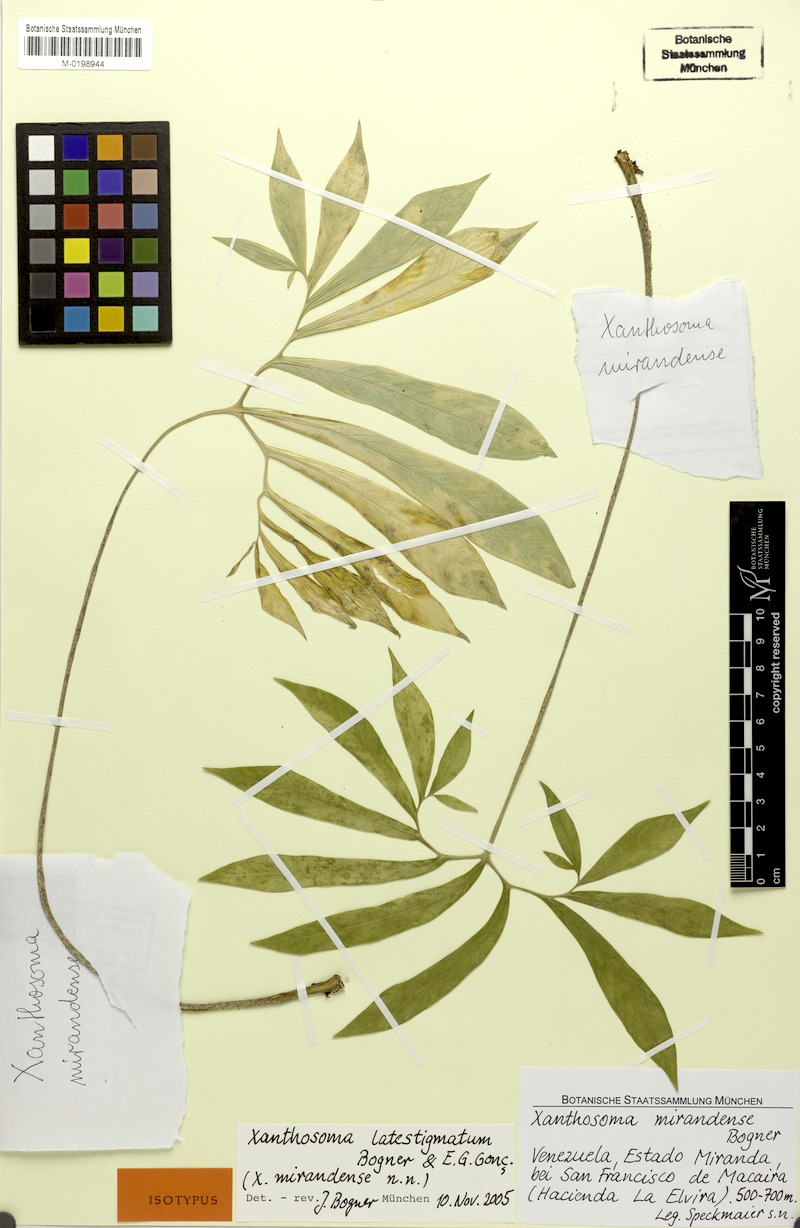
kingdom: Plantae
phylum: Tracheophyta
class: Liliopsida
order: Alismatales
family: Araceae
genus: Xanthosoma
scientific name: Xanthosoma latestigmatum
